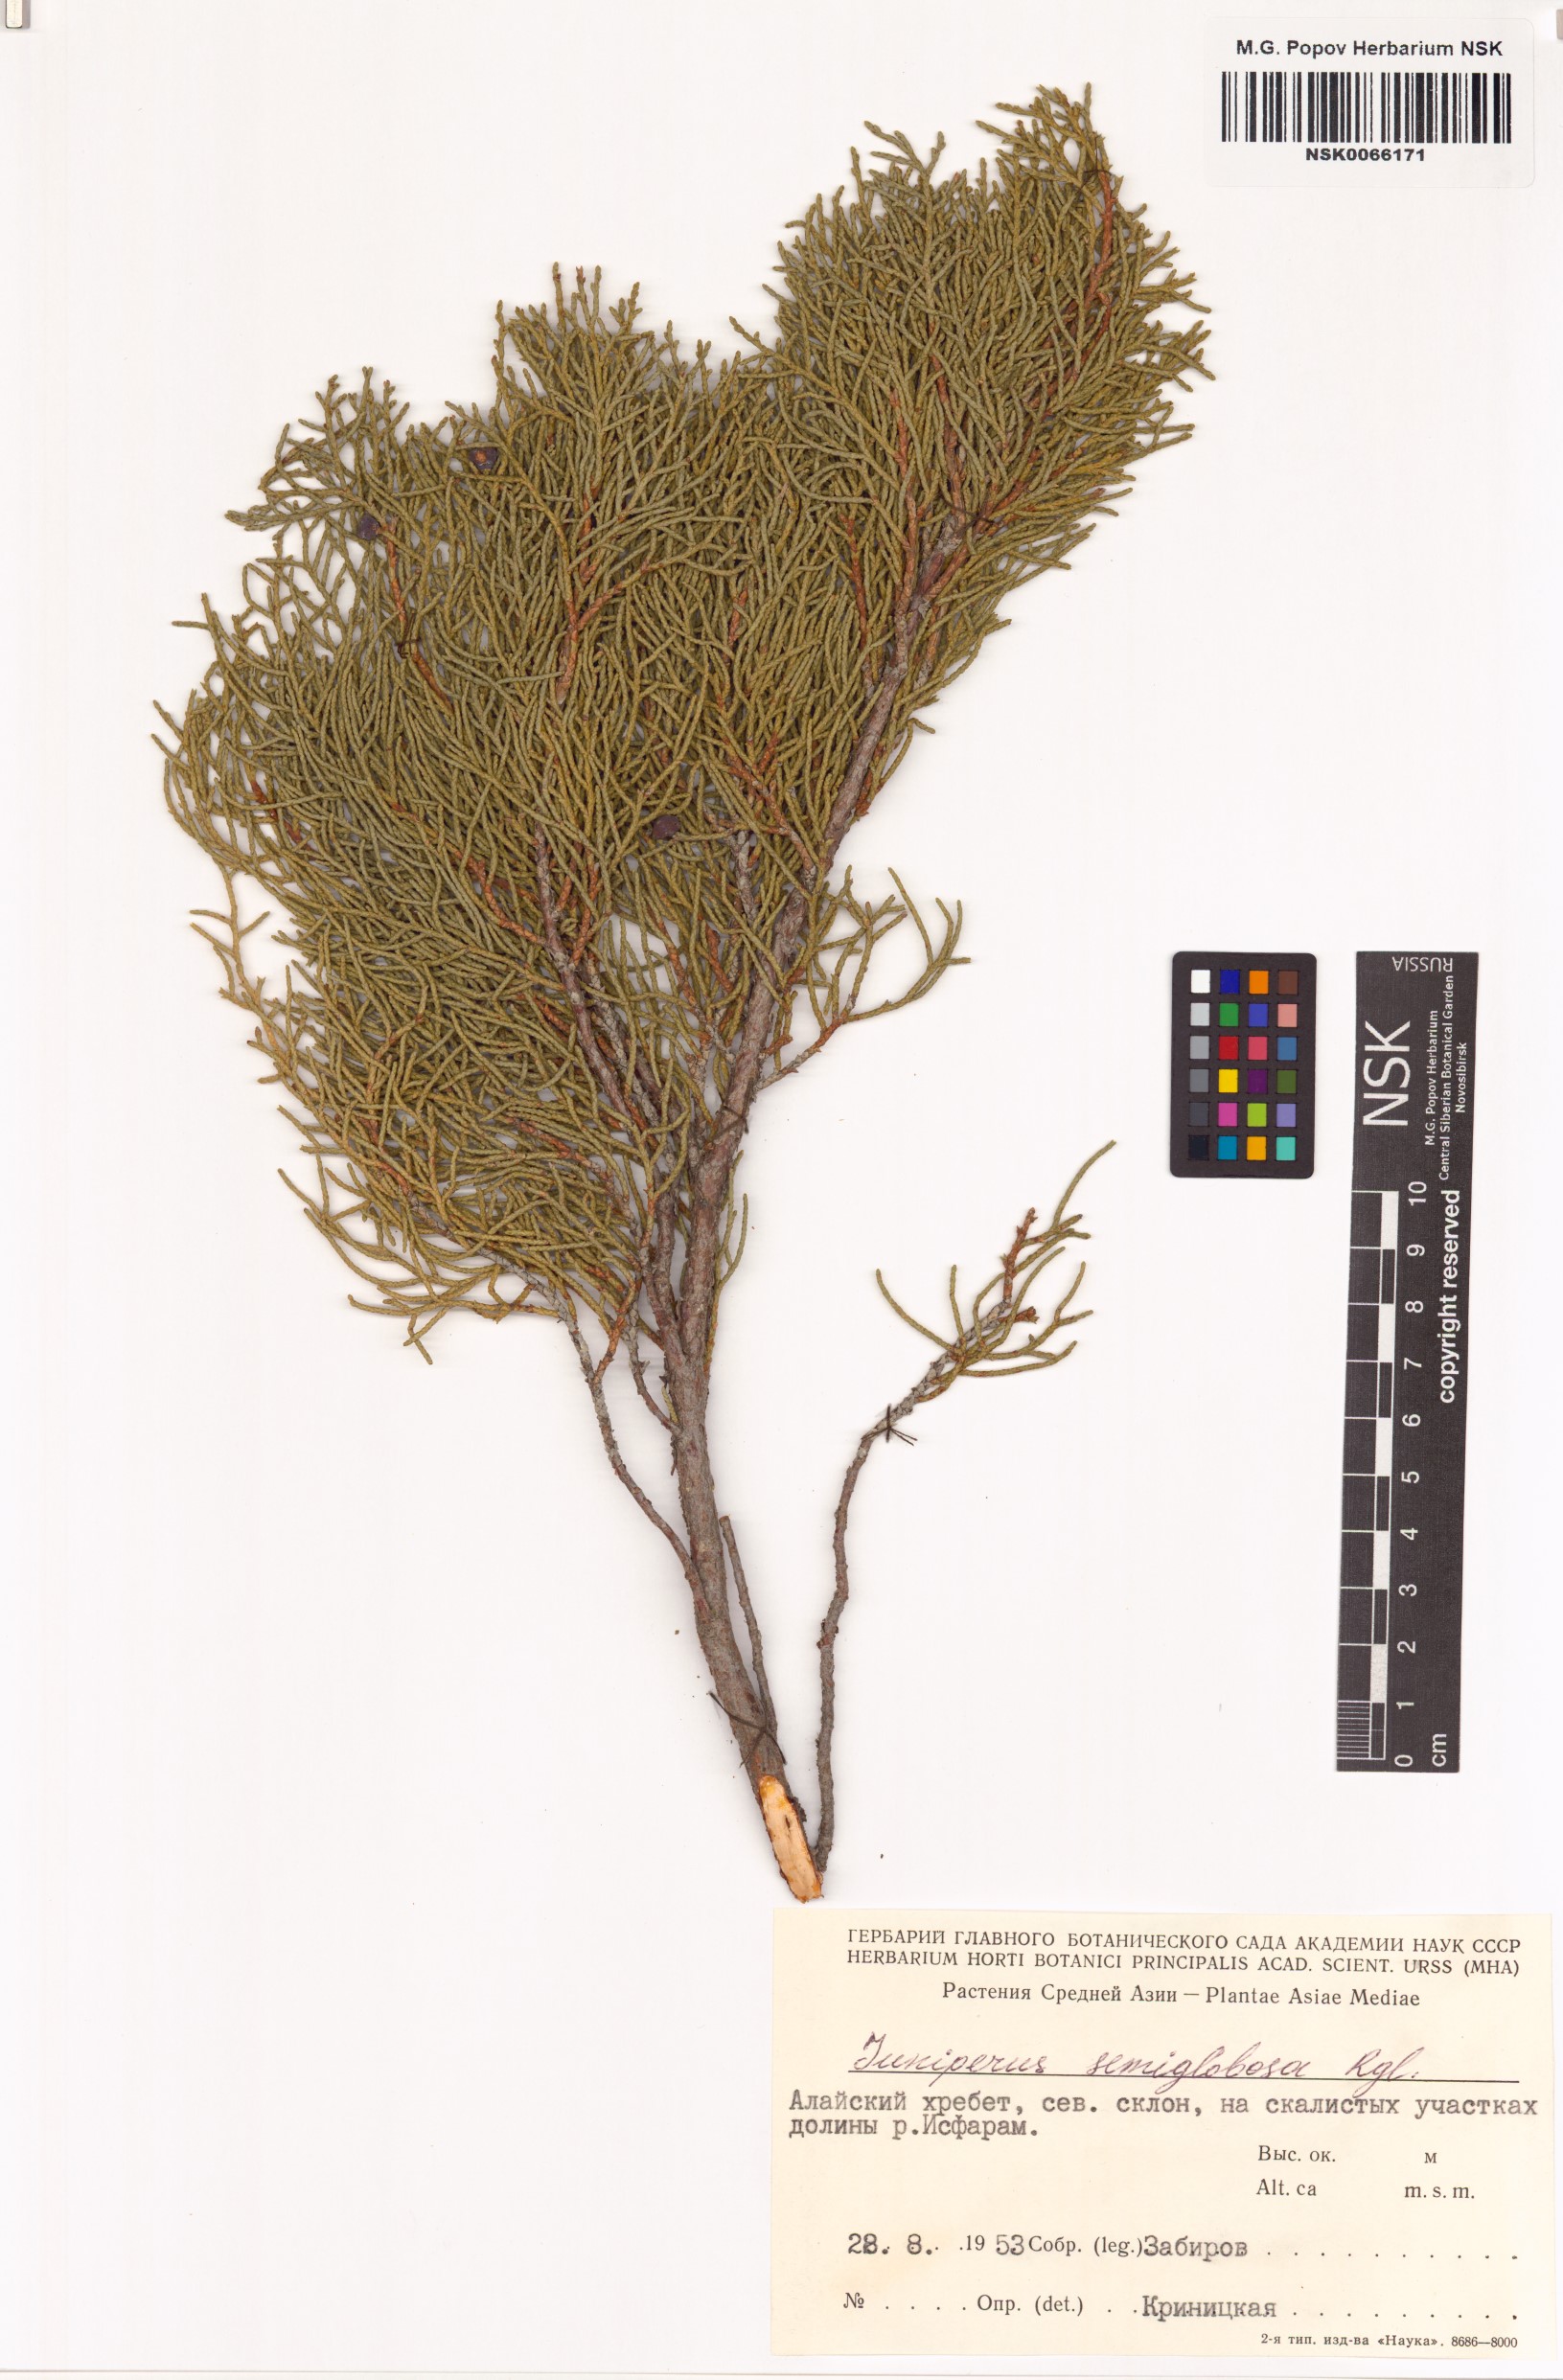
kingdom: Plantae
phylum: Tracheophyta
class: Pinopsida
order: Pinales
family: Cupressaceae
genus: Juniperus
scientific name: Juniperus semiglobosa
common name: Pencil cedar
